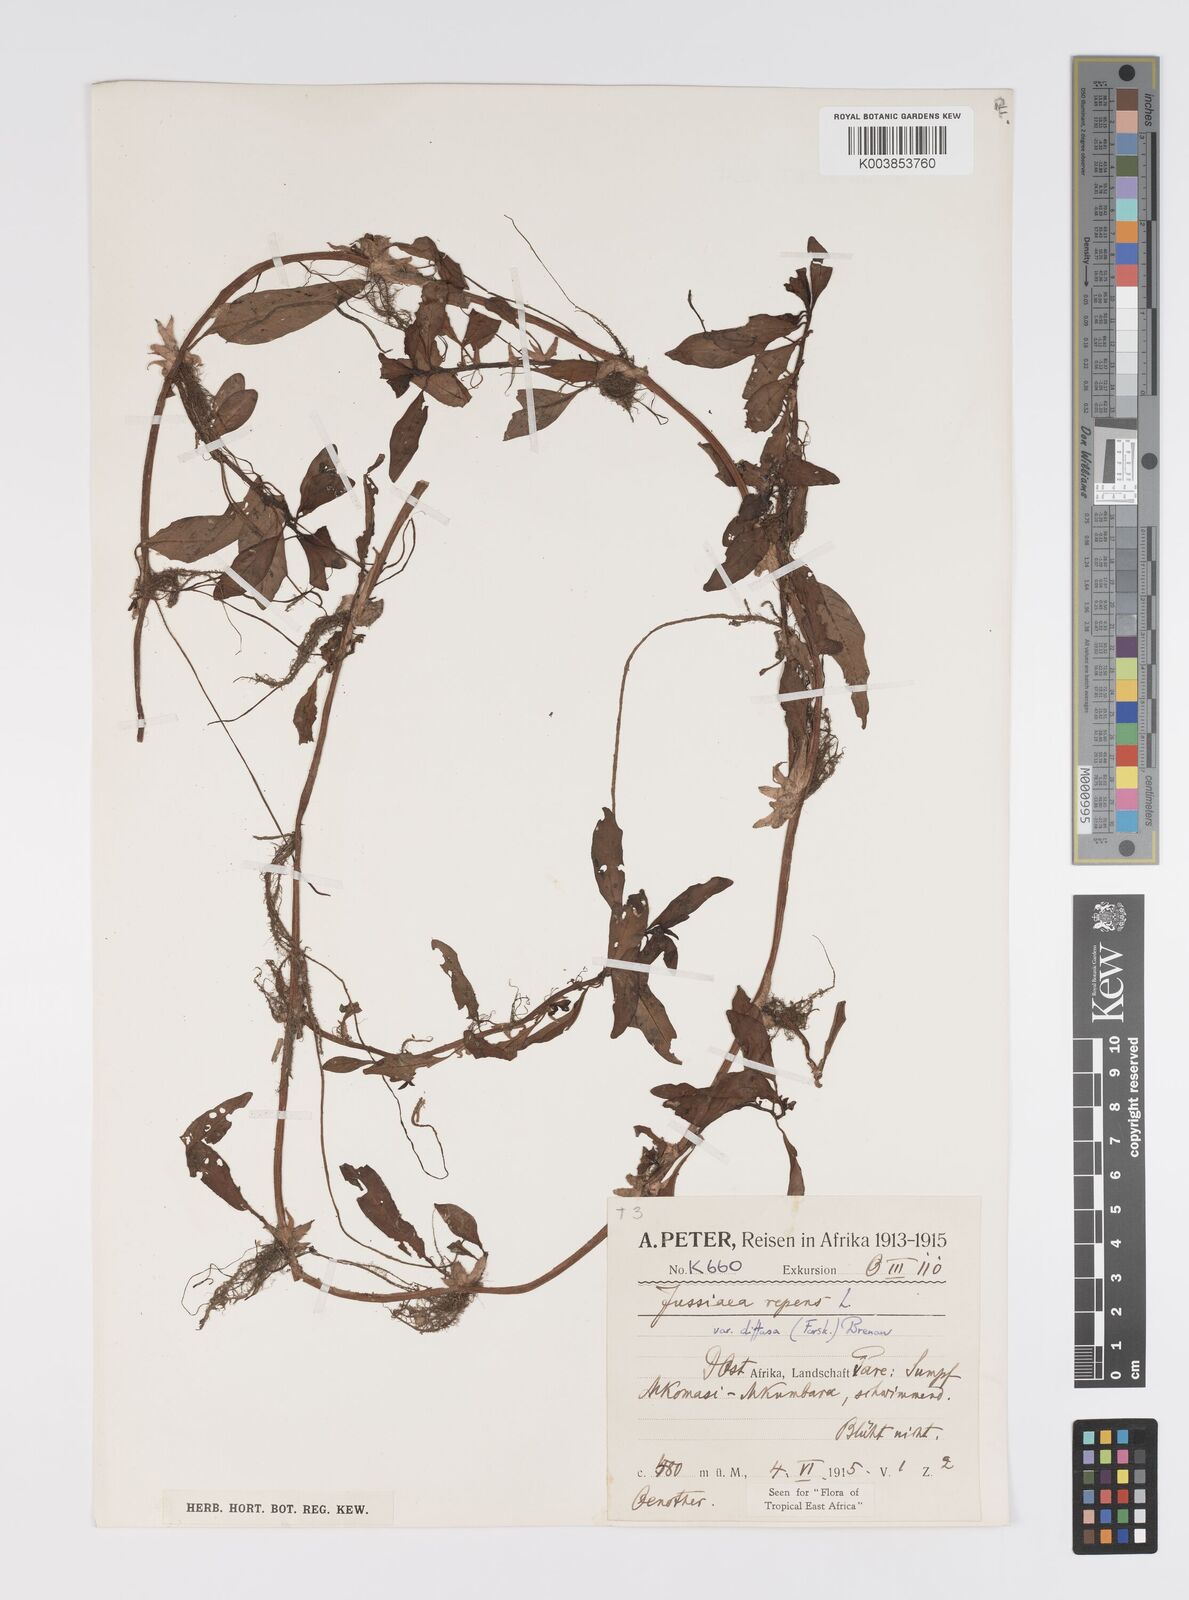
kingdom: Plantae
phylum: Tracheophyta
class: Magnoliopsida
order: Myrtales
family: Onagraceae
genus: Ludwigia
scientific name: Ludwigia repens
